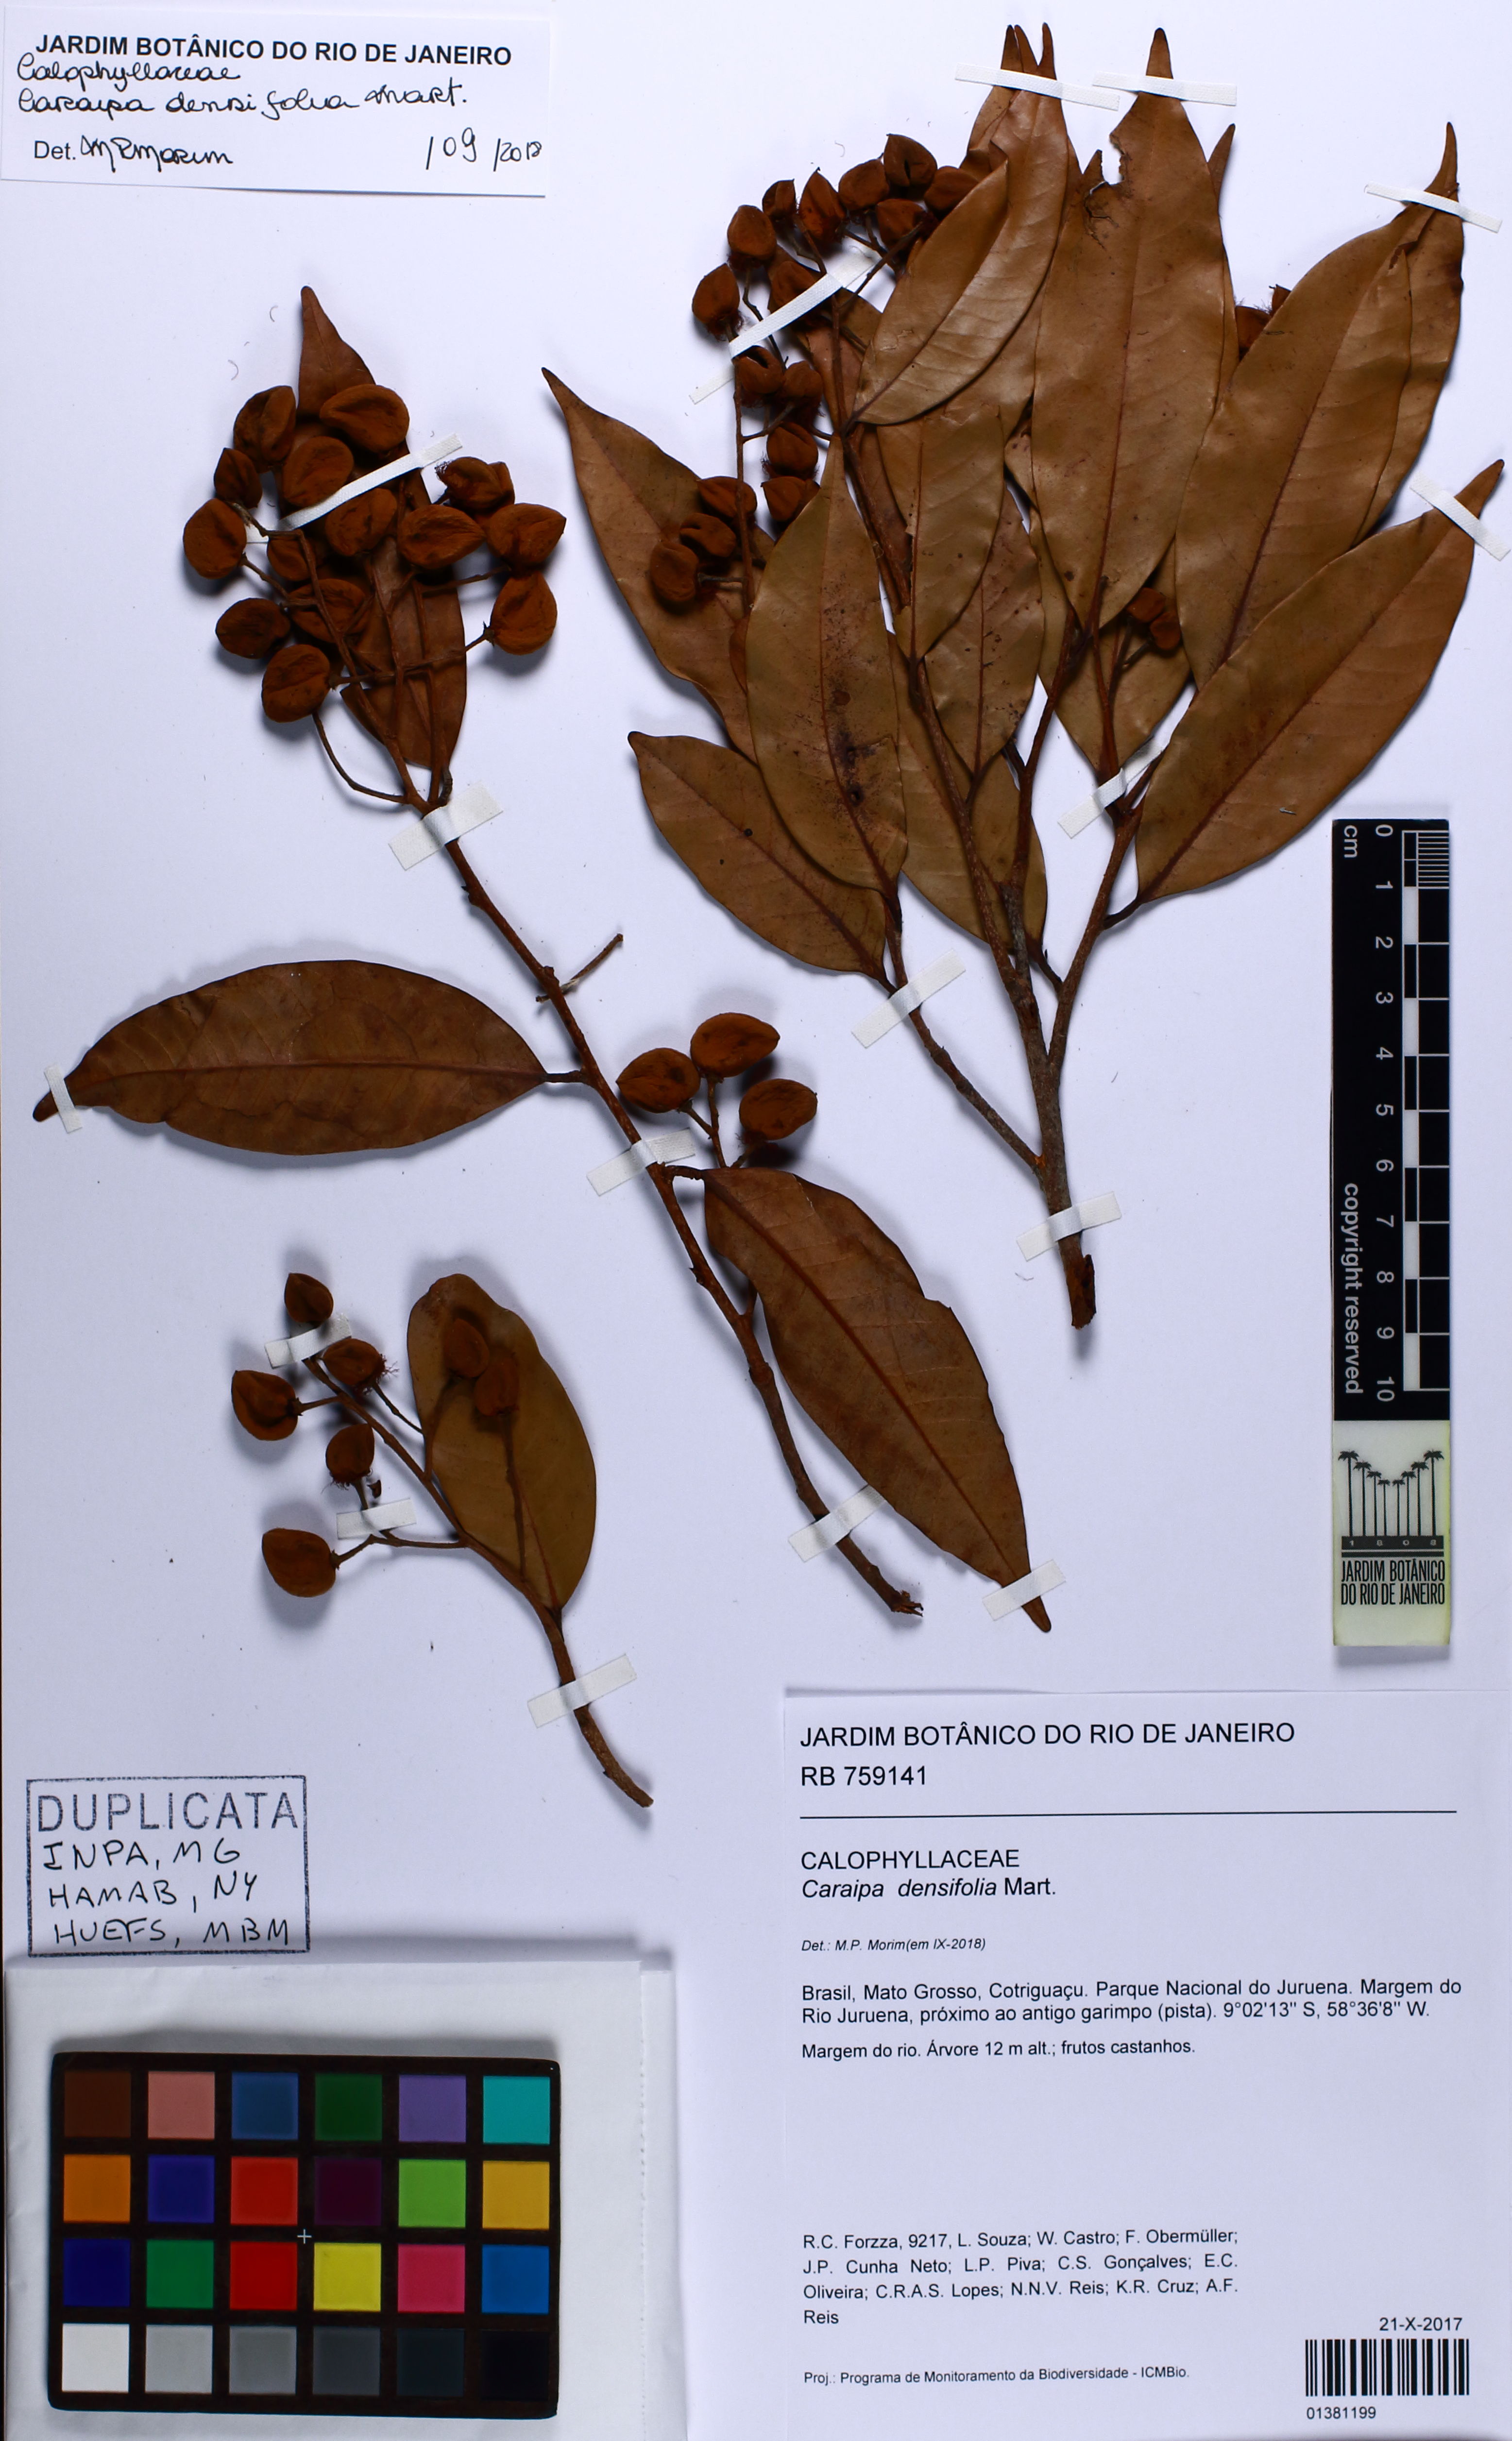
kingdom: Plantae
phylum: Tracheophyta
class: Magnoliopsida
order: Malpighiales
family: Calophyllaceae
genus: Caraipa
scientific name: Caraipa densifolia
